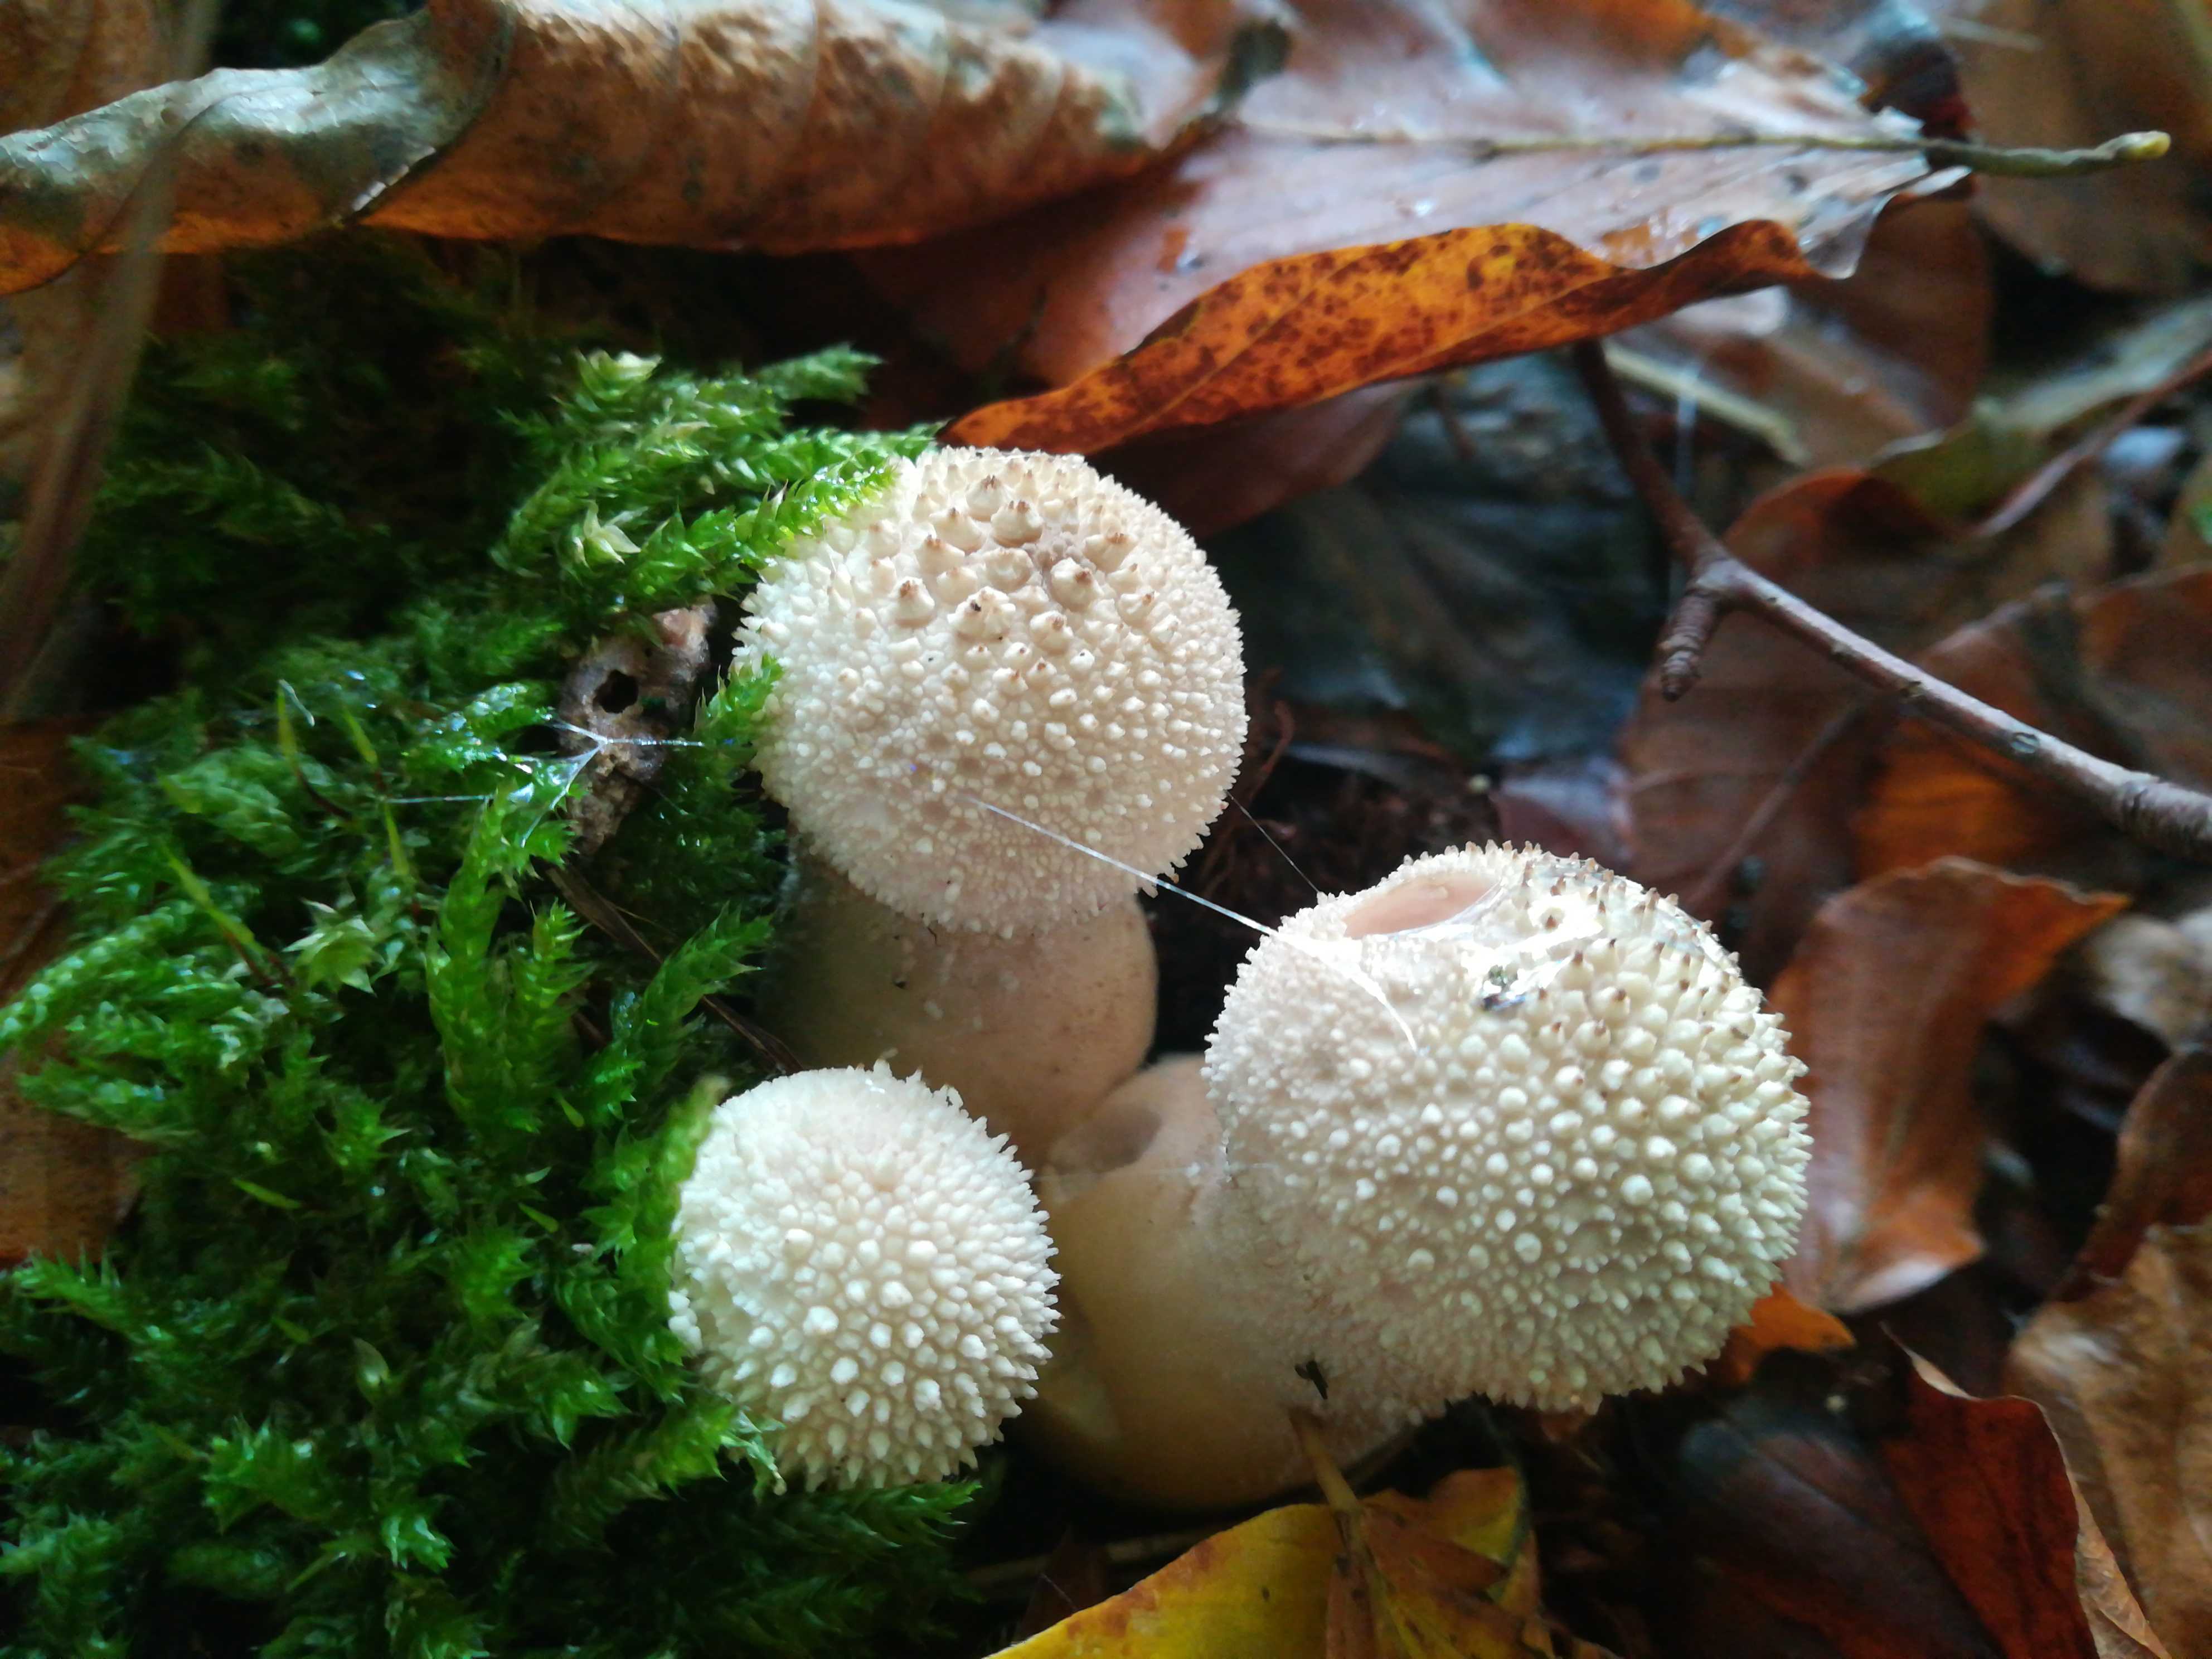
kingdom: Fungi
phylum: Basidiomycota
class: Agaricomycetes
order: Agaricales
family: Lycoperdaceae
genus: Lycoperdon
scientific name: Lycoperdon perlatum
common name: krystal-støvbold
